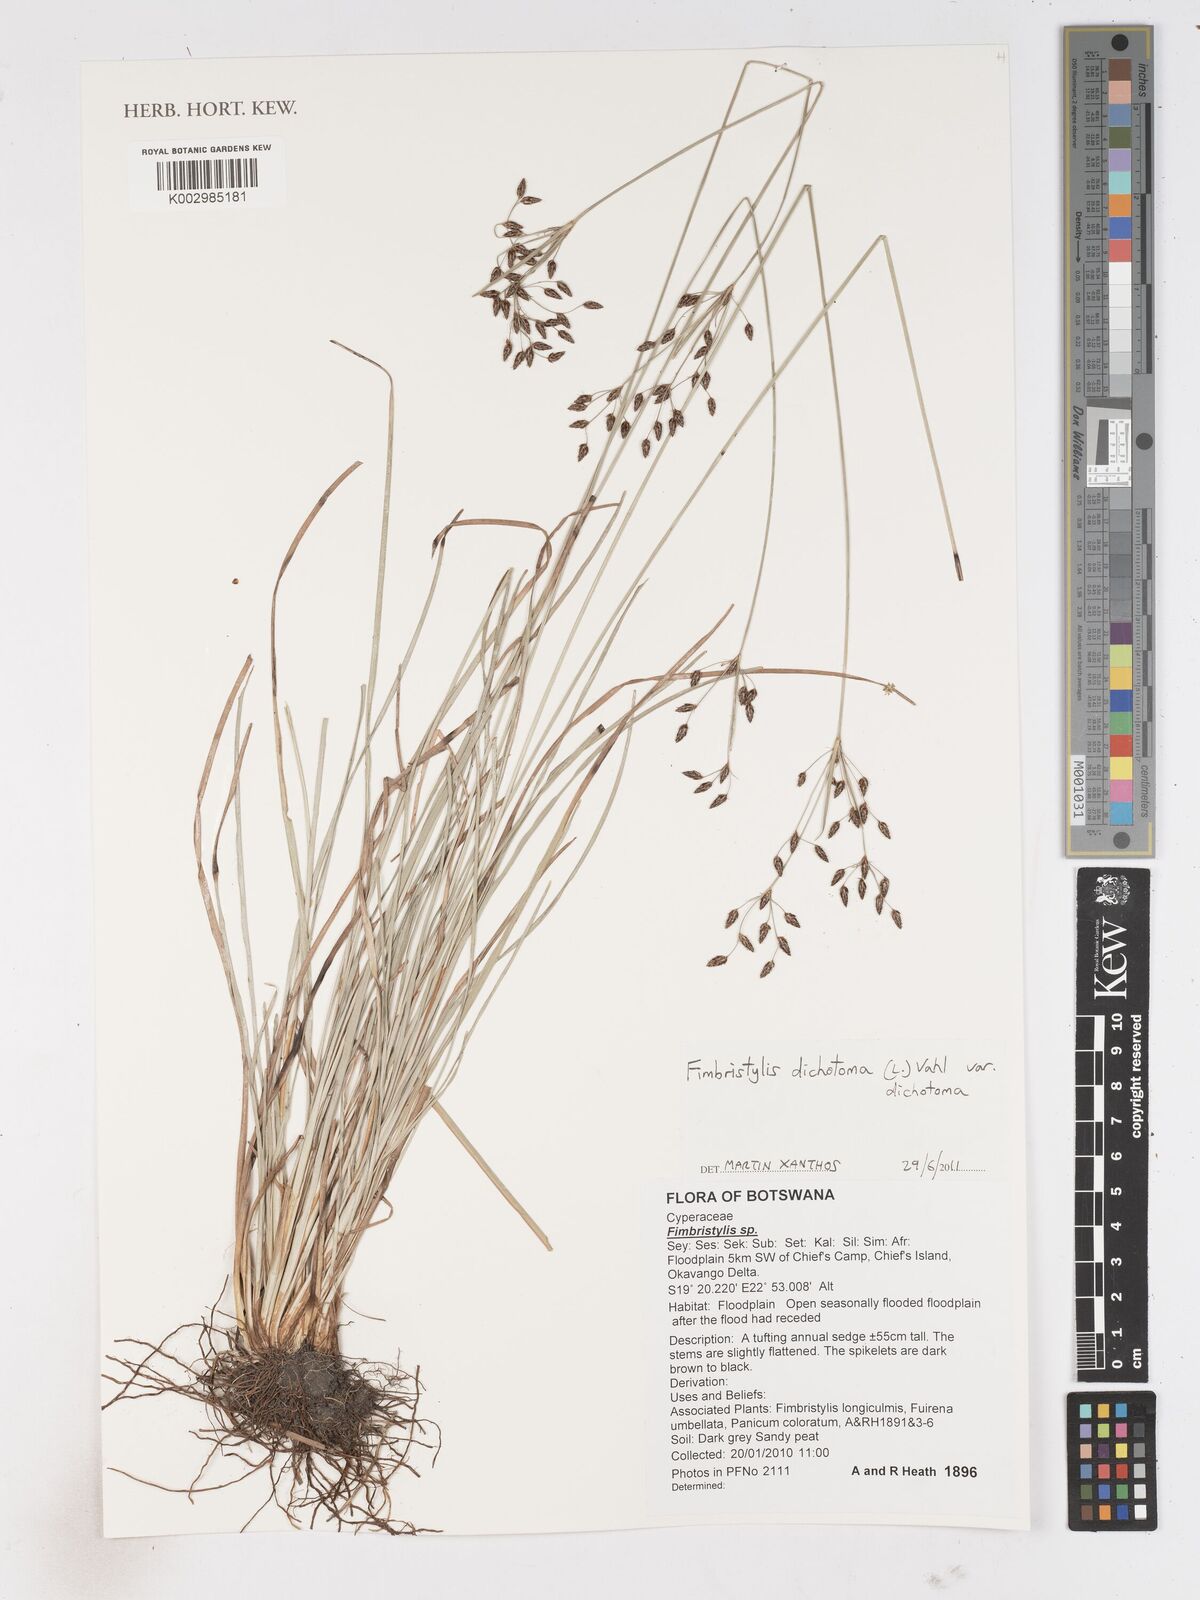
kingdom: Plantae
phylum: Tracheophyta
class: Liliopsida
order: Poales
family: Cyperaceae
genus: Fimbristylis
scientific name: Fimbristylis dichotoma
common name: Forked fimbry
